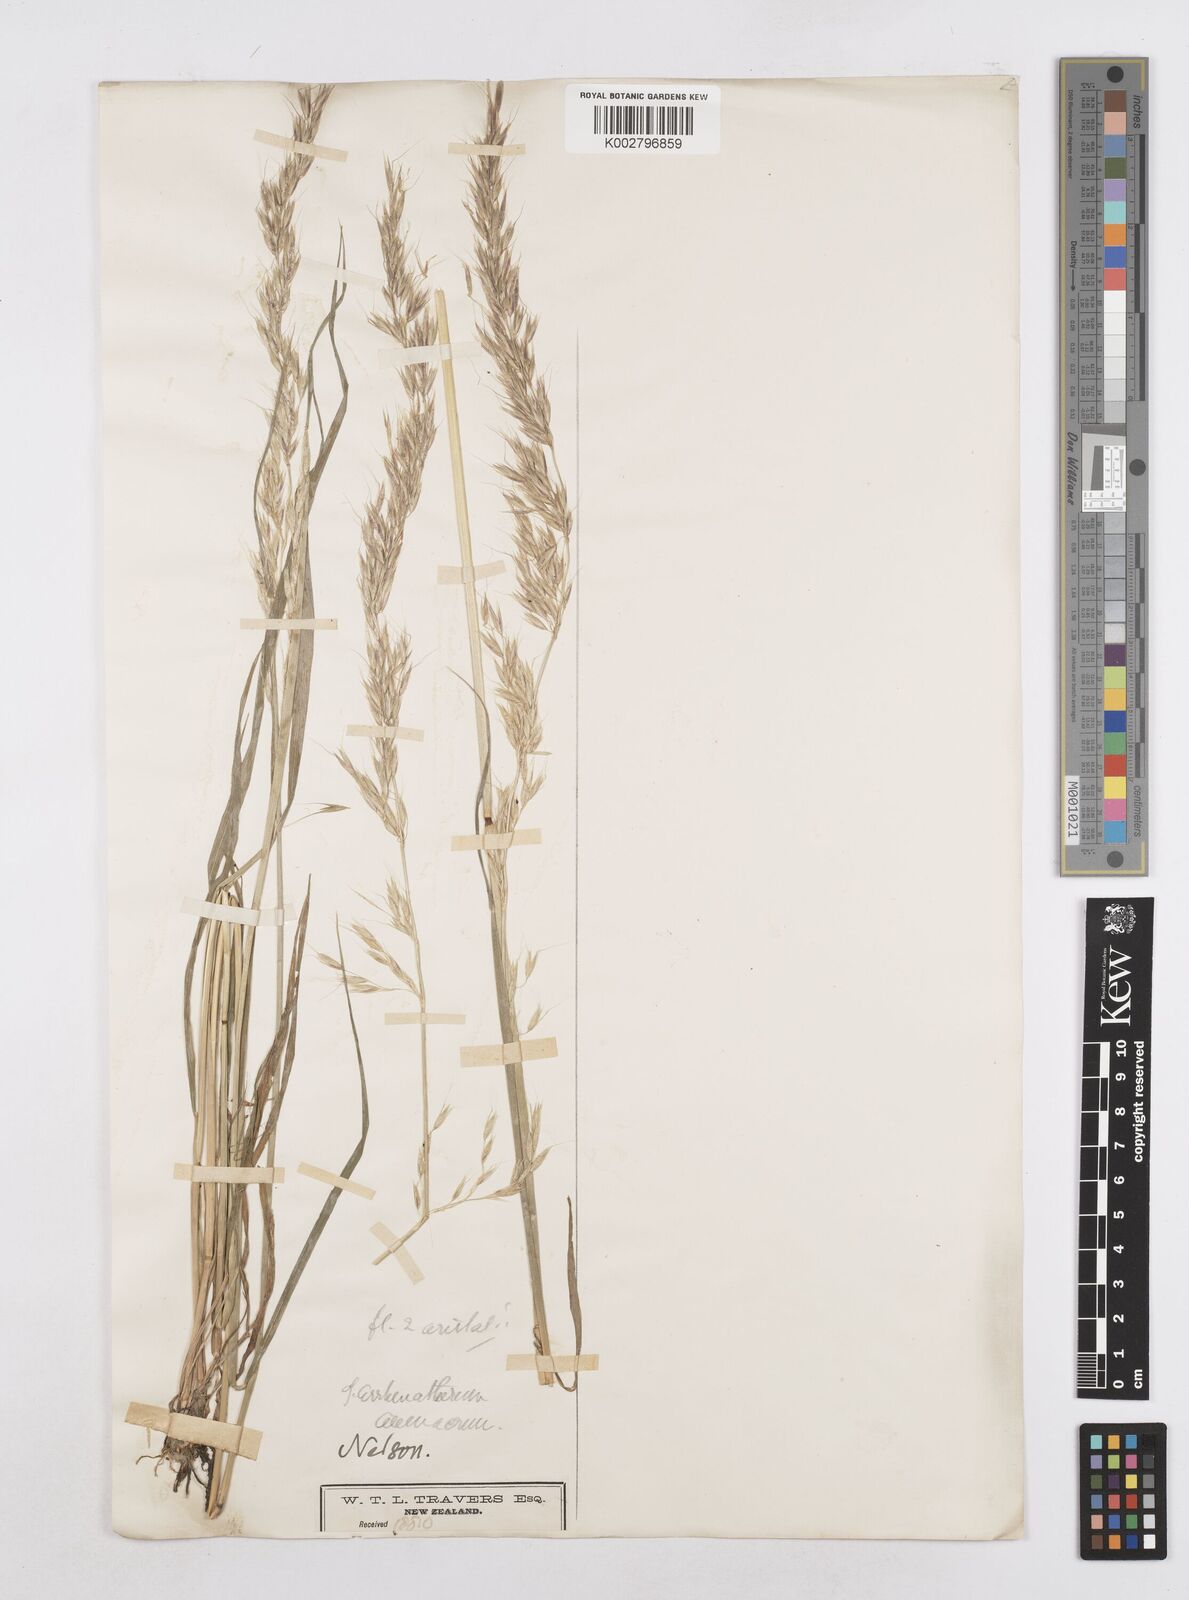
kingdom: Plantae
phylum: Tracheophyta
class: Liliopsida
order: Poales
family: Poaceae
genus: Arrhenatherum
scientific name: Arrhenatherum elatius
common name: Tall oatgrass
